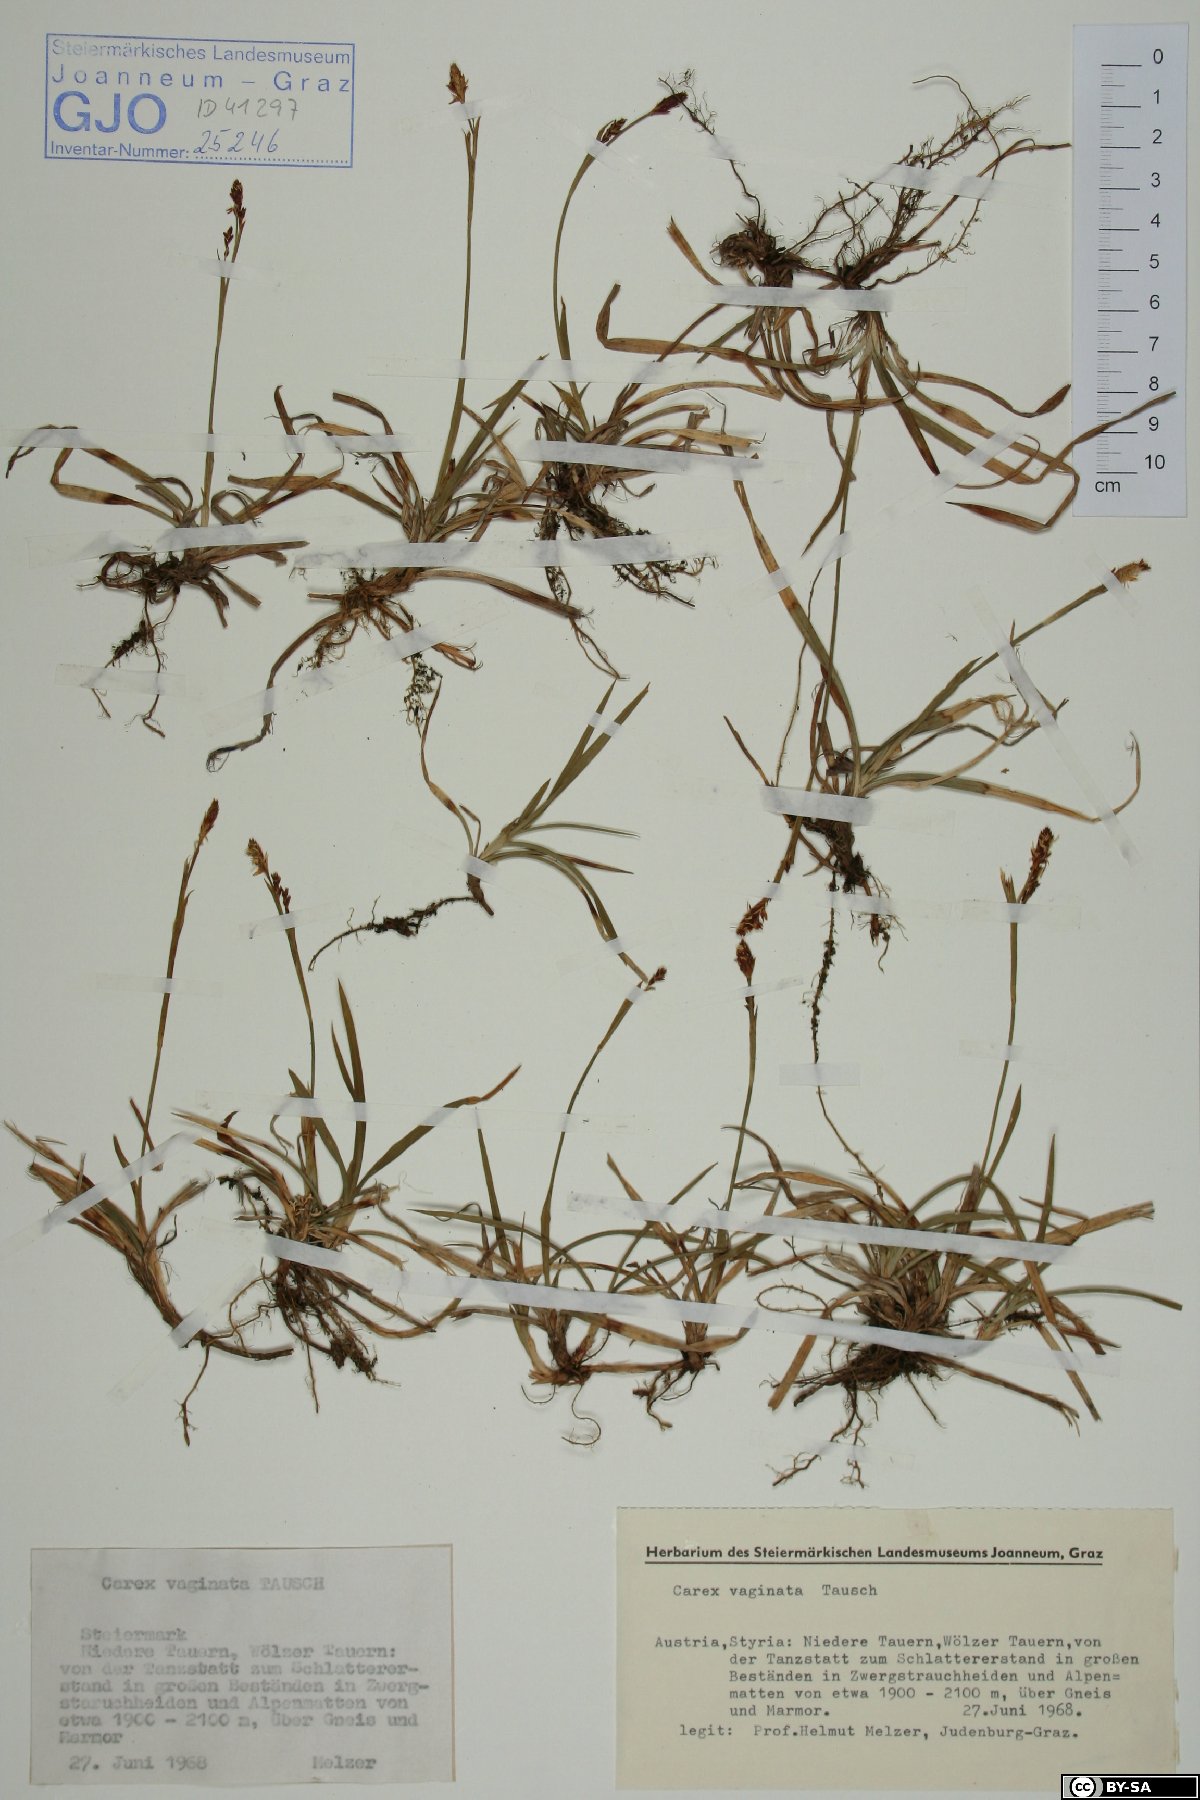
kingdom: Plantae
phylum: Tracheophyta
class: Liliopsida
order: Poales
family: Cyperaceae
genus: Carex
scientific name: Carex vaginata
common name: Sheathed sedge
